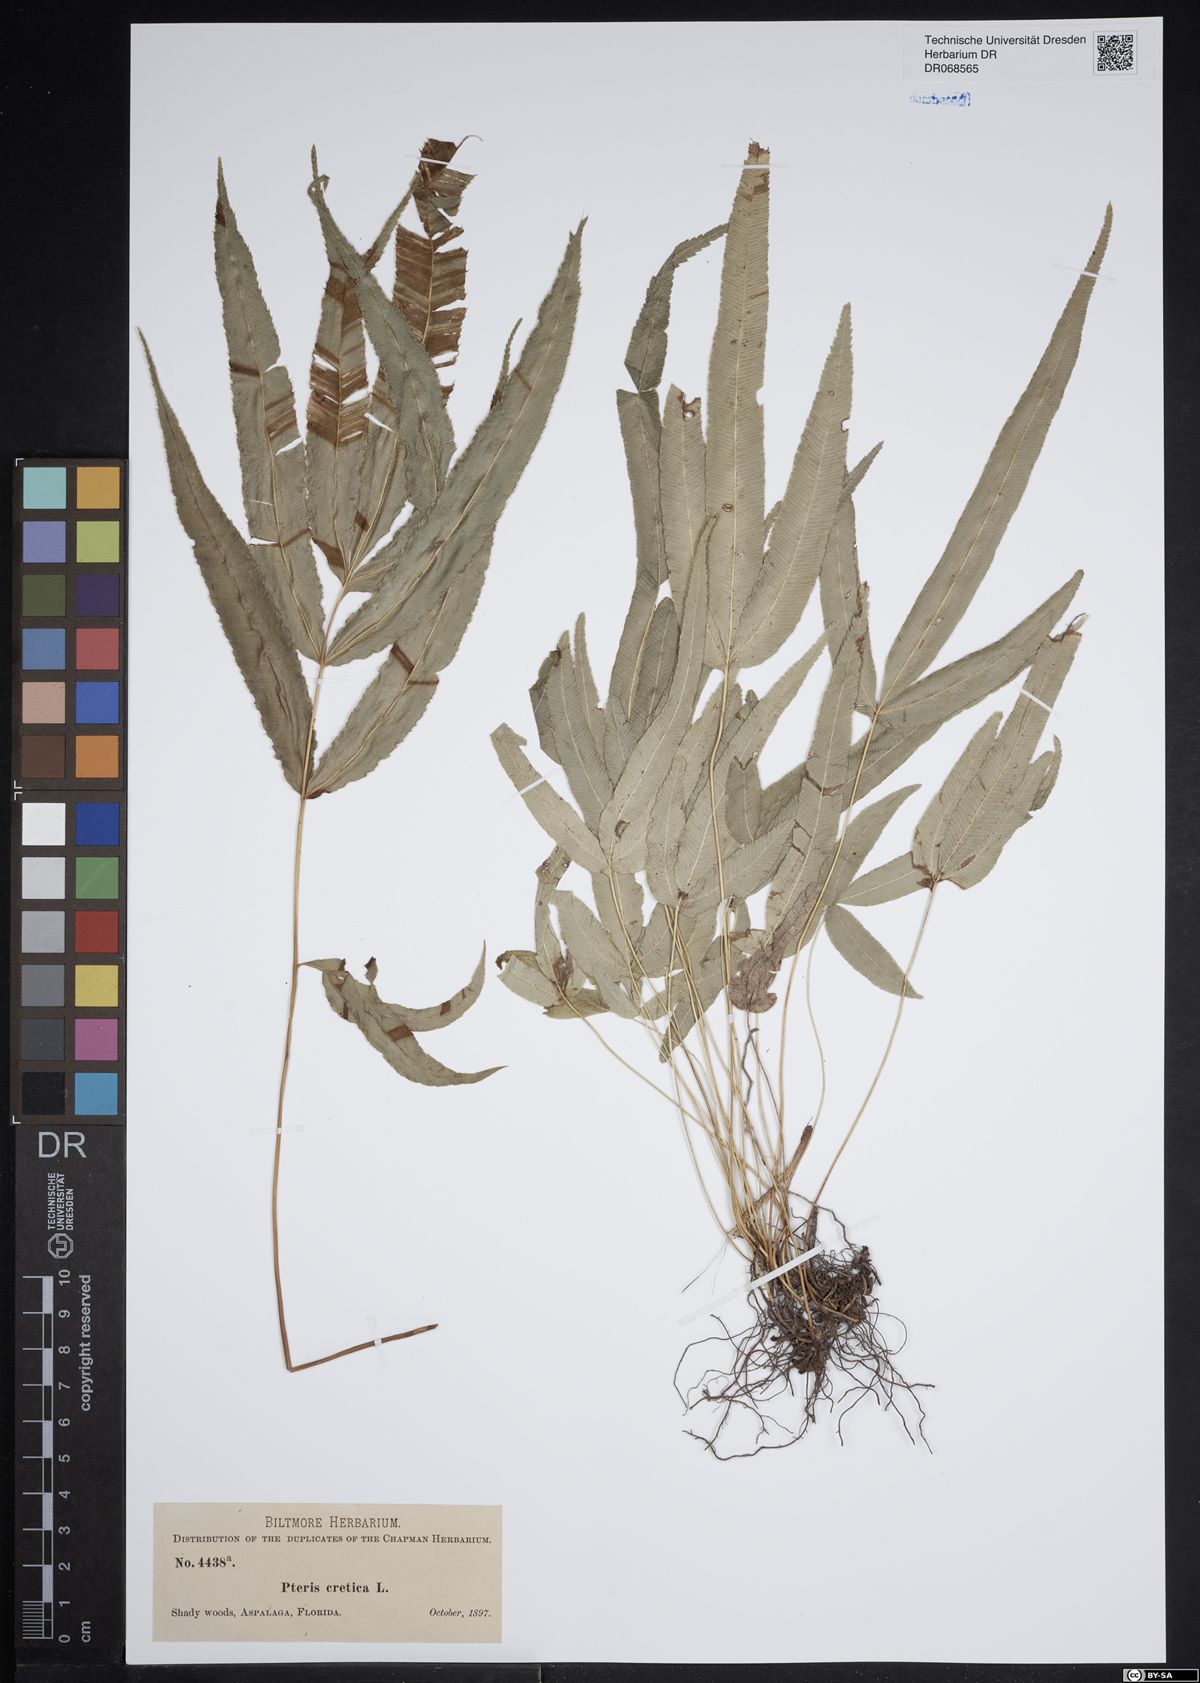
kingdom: Plantae
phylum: Tracheophyta
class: Polypodiopsida
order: Polypodiales
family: Pteridaceae
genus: Pteris
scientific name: Pteris cretica
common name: Ribbon fern
